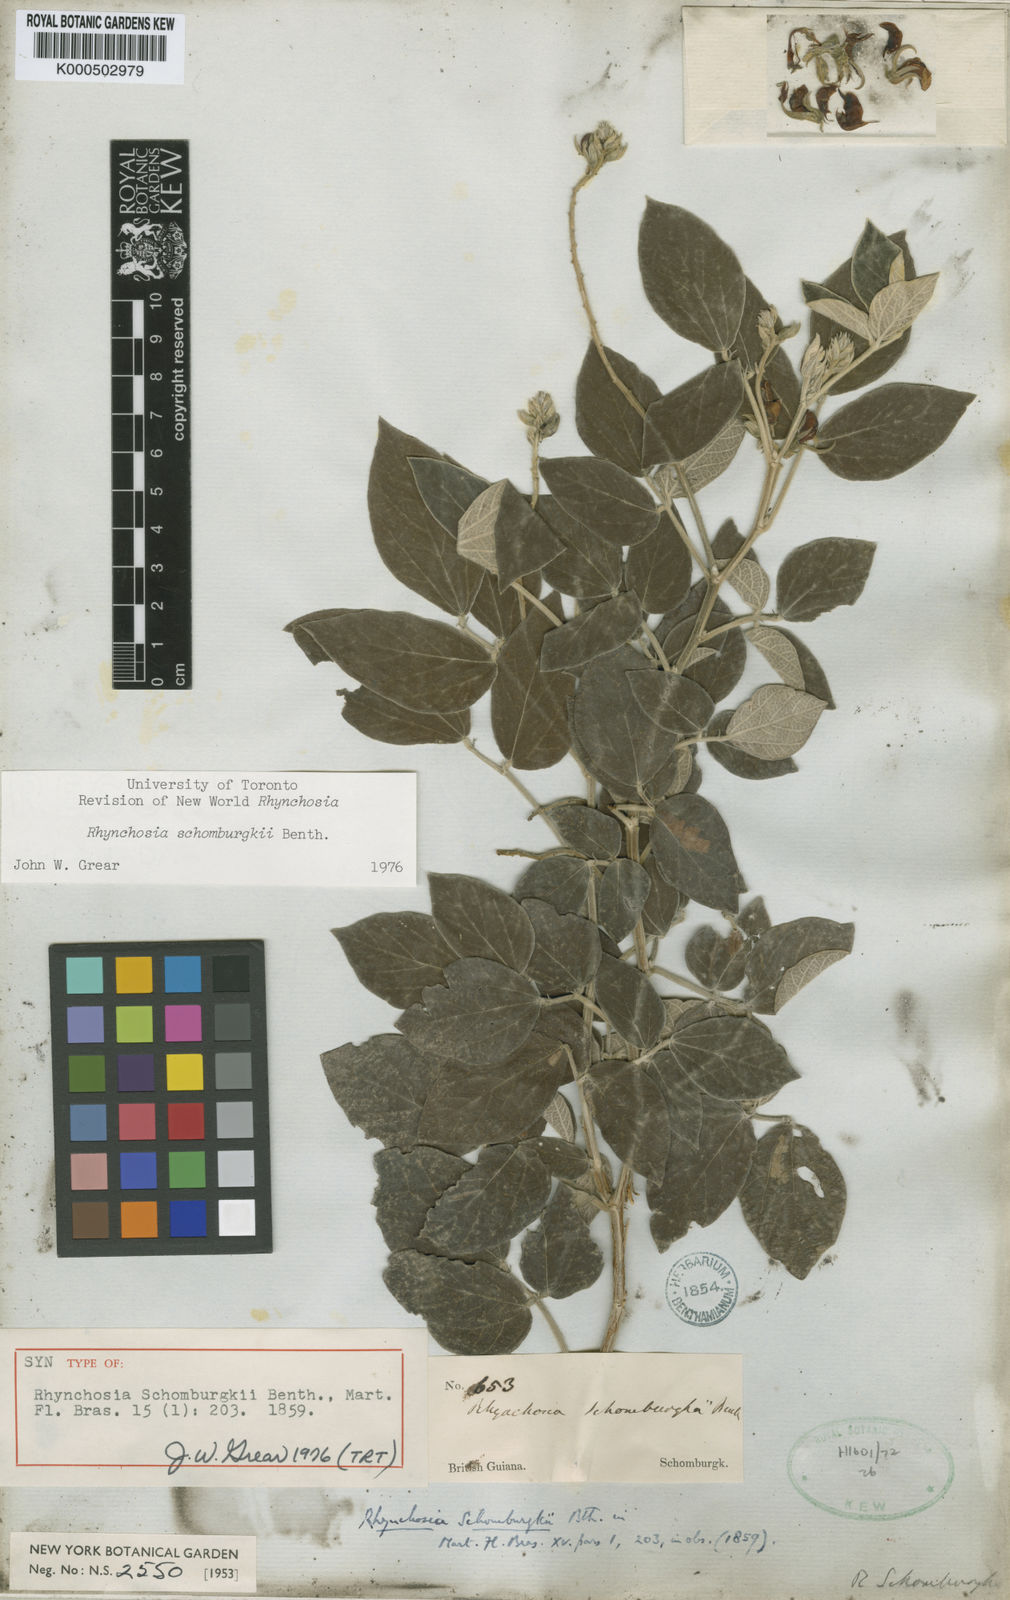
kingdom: Plantae
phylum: Tracheophyta
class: Magnoliopsida
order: Fabales
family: Fabaceae
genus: Rhynchosia
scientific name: Rhynchosia schomburgkii
